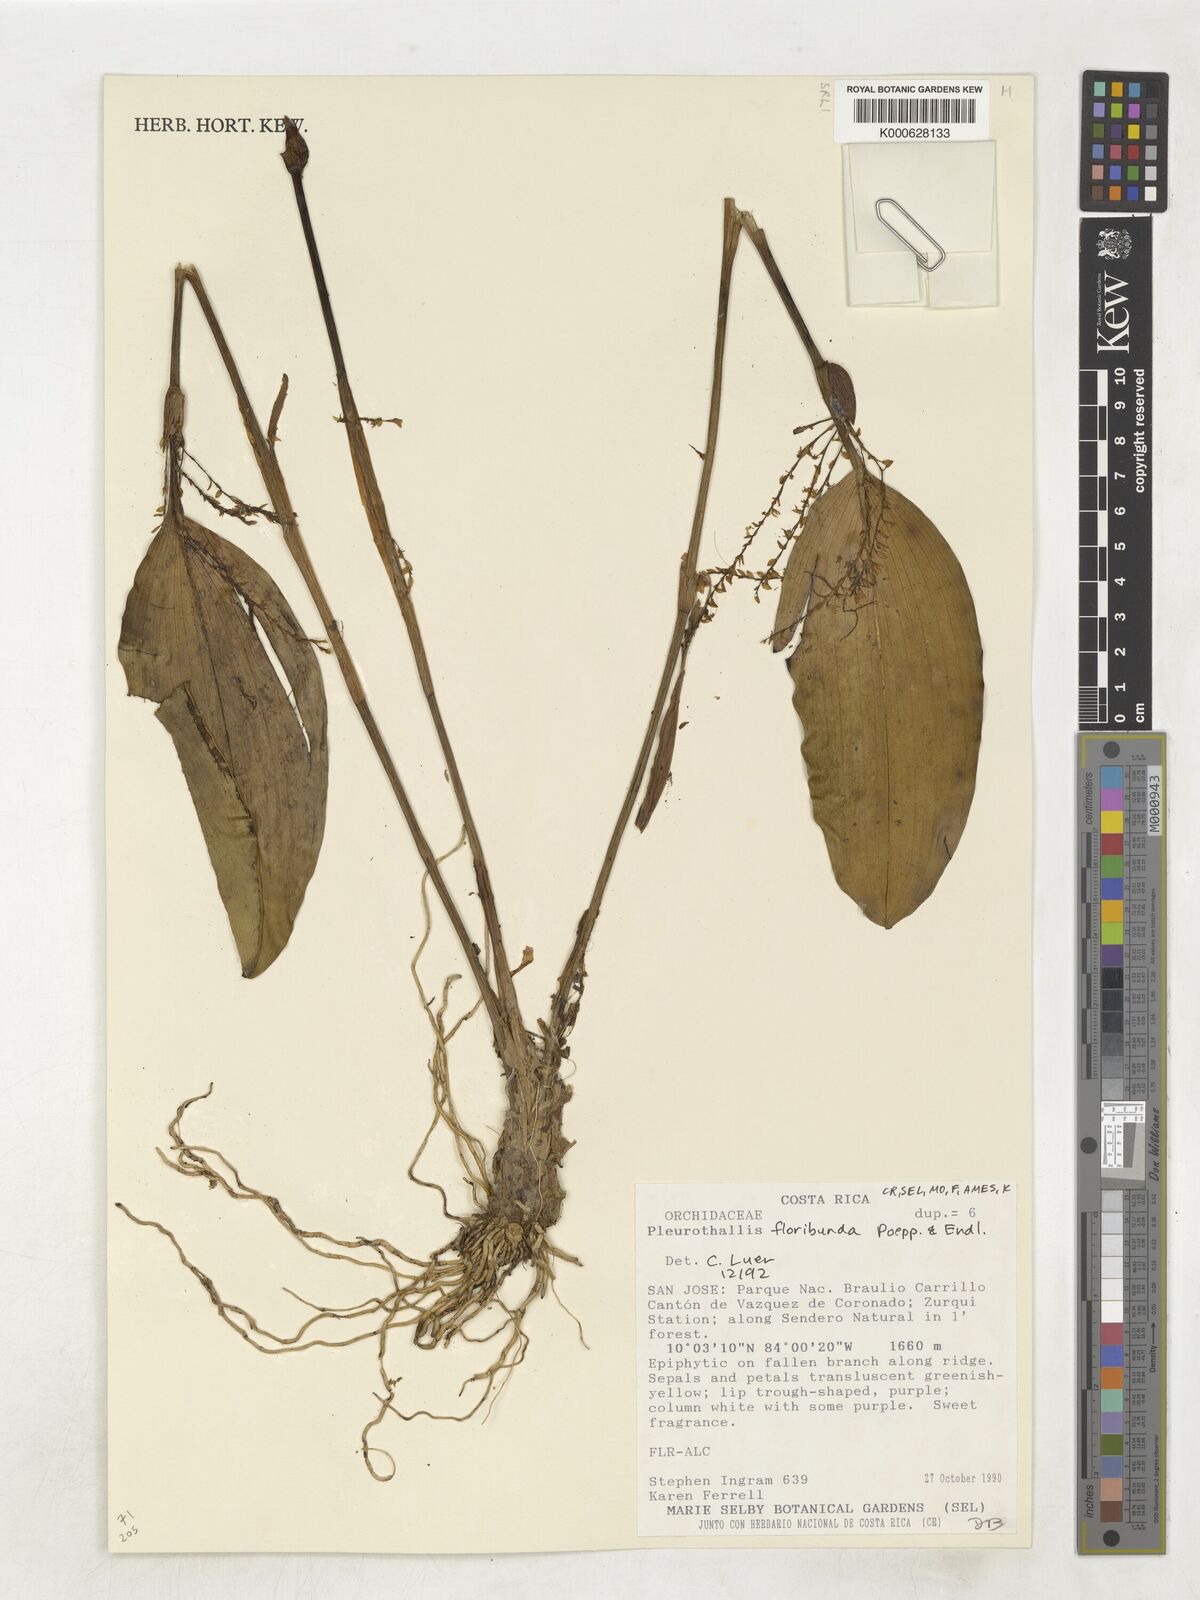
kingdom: Plantae
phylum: Tracheophyta
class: Liliopsida
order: Asparagales
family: Orchidaceae
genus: Pleurothallis
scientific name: Pleurothallis
